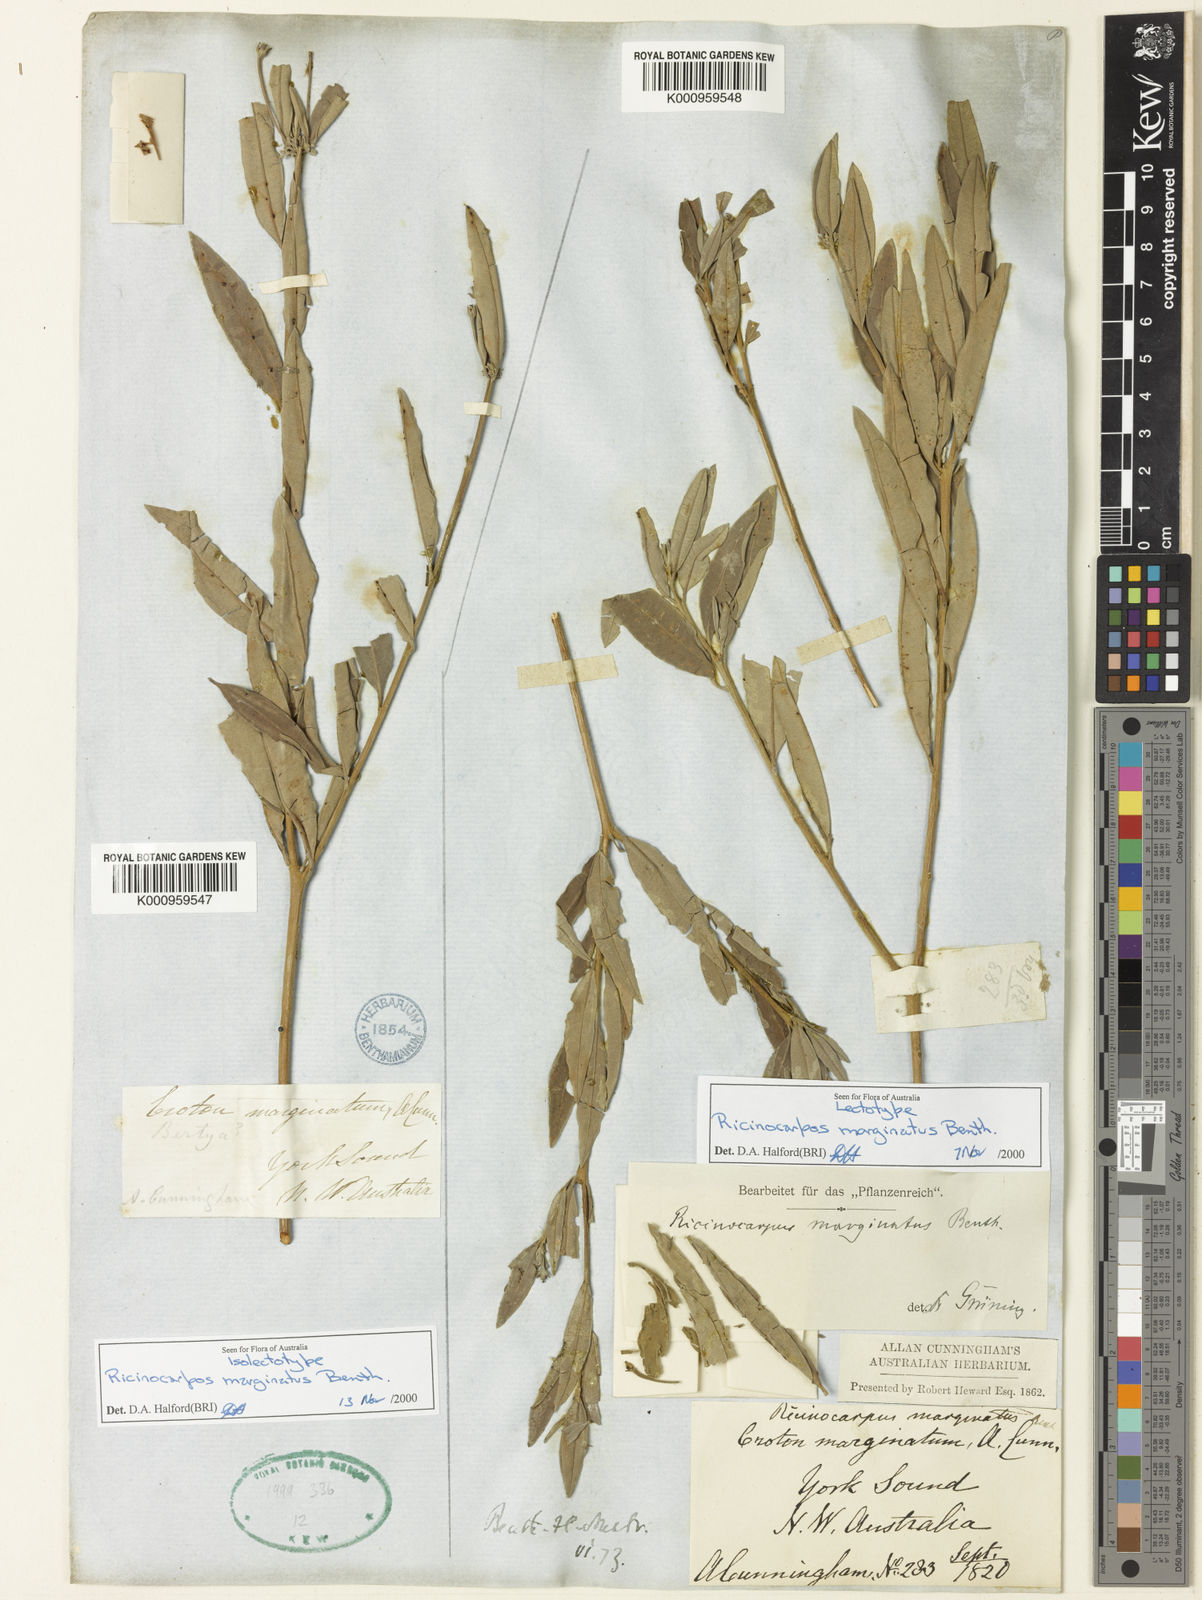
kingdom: Plantae
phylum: Tracheophyta
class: Magnoliopsida
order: Malpighiales
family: Euphorbiaceae
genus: Ricinocarpos
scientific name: Ricinocarpos marginatus
